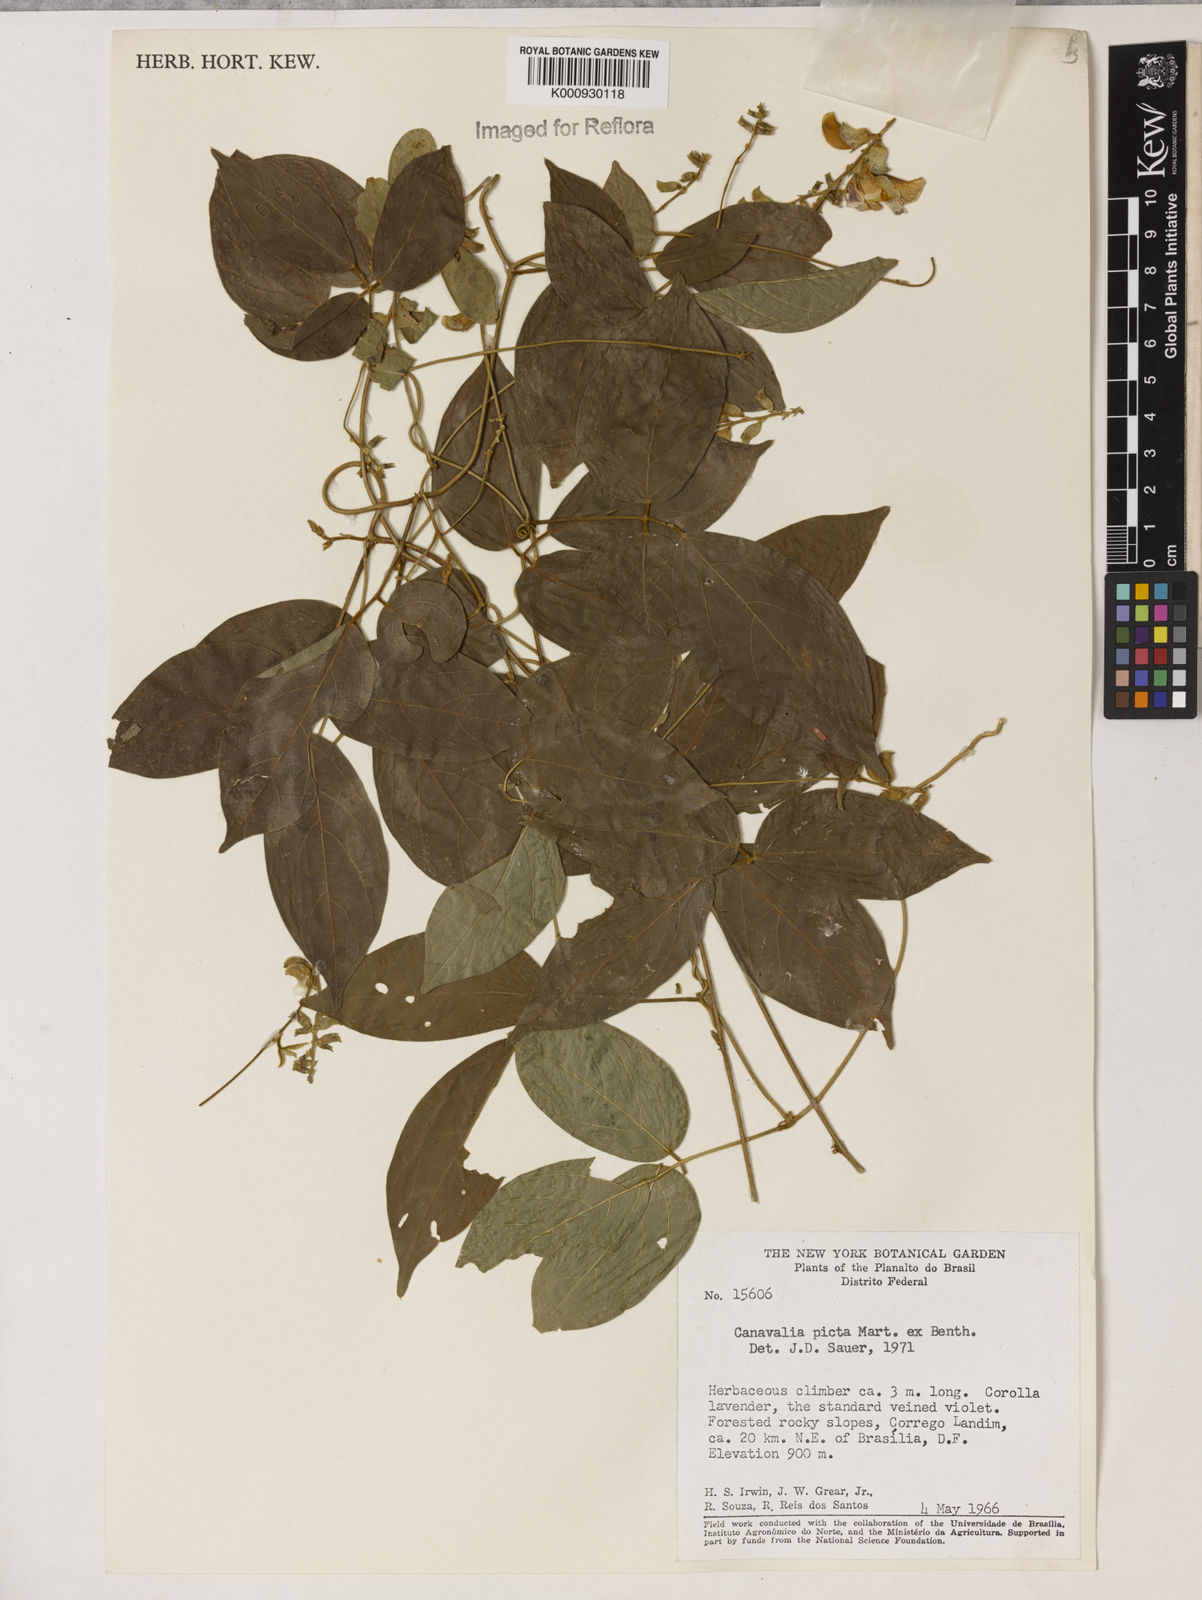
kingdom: Plantae
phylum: Tracheophyta
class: Magnoliopsida
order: Fabales
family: Fabaceae
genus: Canavalia
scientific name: Canavalia picta
